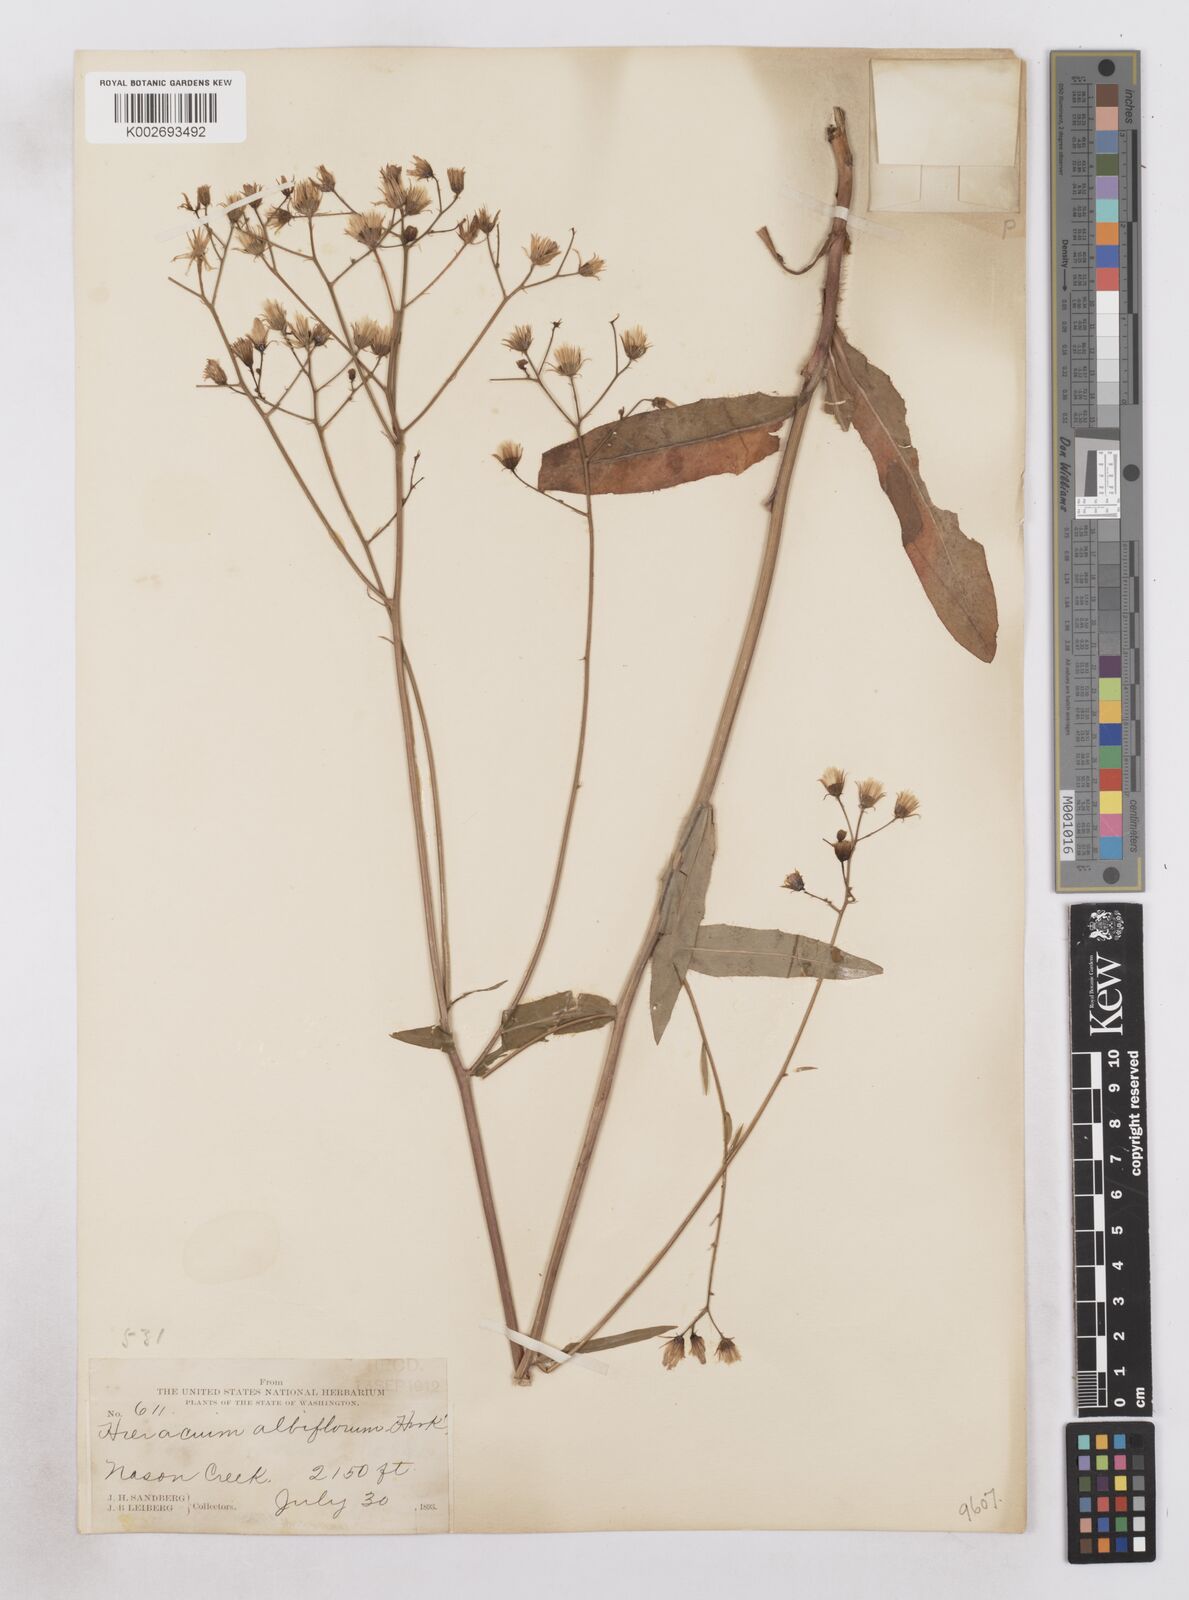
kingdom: Plantae
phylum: Tracheophyta
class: Magnoliopsida
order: Asterales
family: Asteraceae
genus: Hieracium
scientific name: Hieracium albiflorum
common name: White hawkweed
